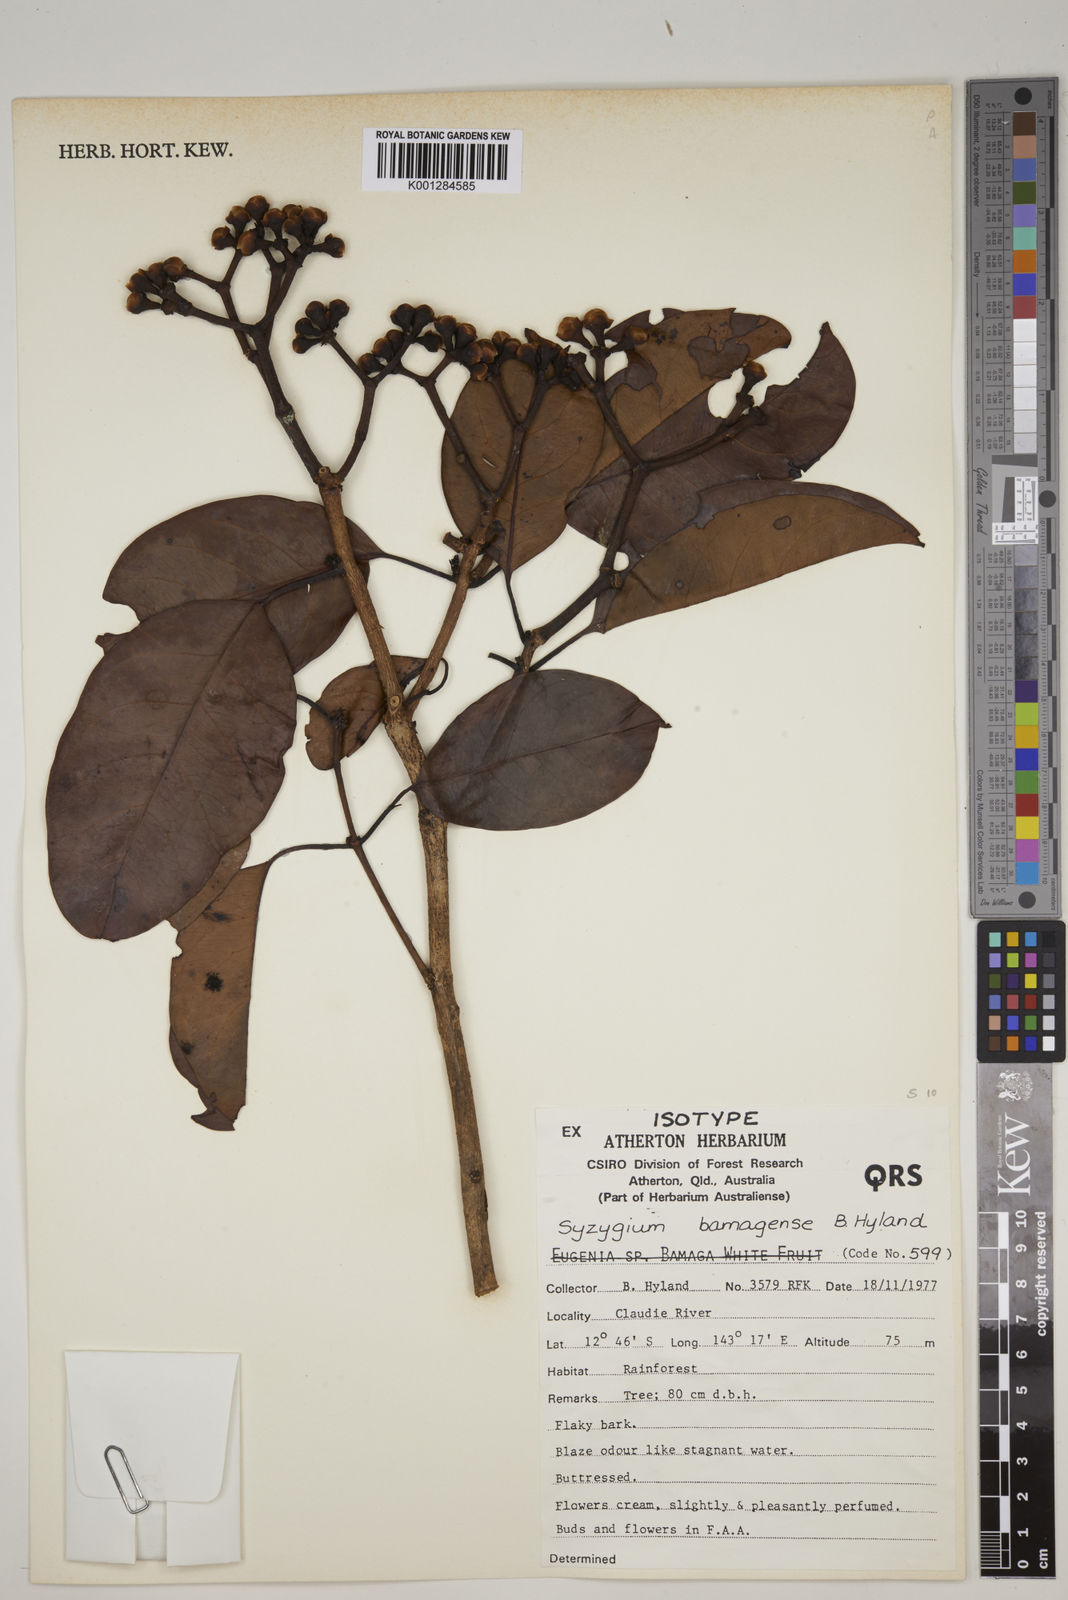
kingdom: Plantae
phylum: Tracheophyta
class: Magnoliopsida
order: Myrtales
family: Myrtaceae
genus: Syzygium
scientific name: Syzygium bamagense
